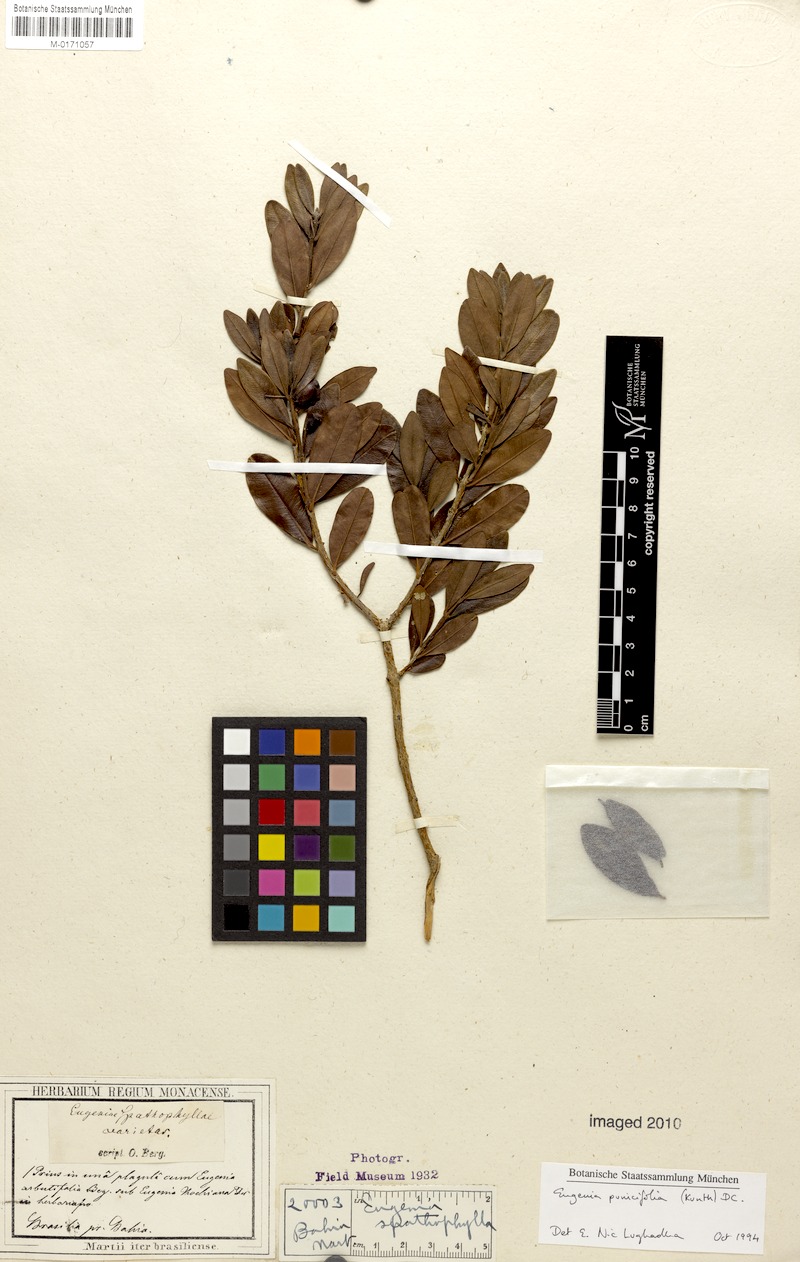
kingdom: Plantae
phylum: Tracheophyta
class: Magnoliopsida
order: Myrtales
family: Myrtaceae
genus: Eugenia
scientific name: Eugenia punicifolia
